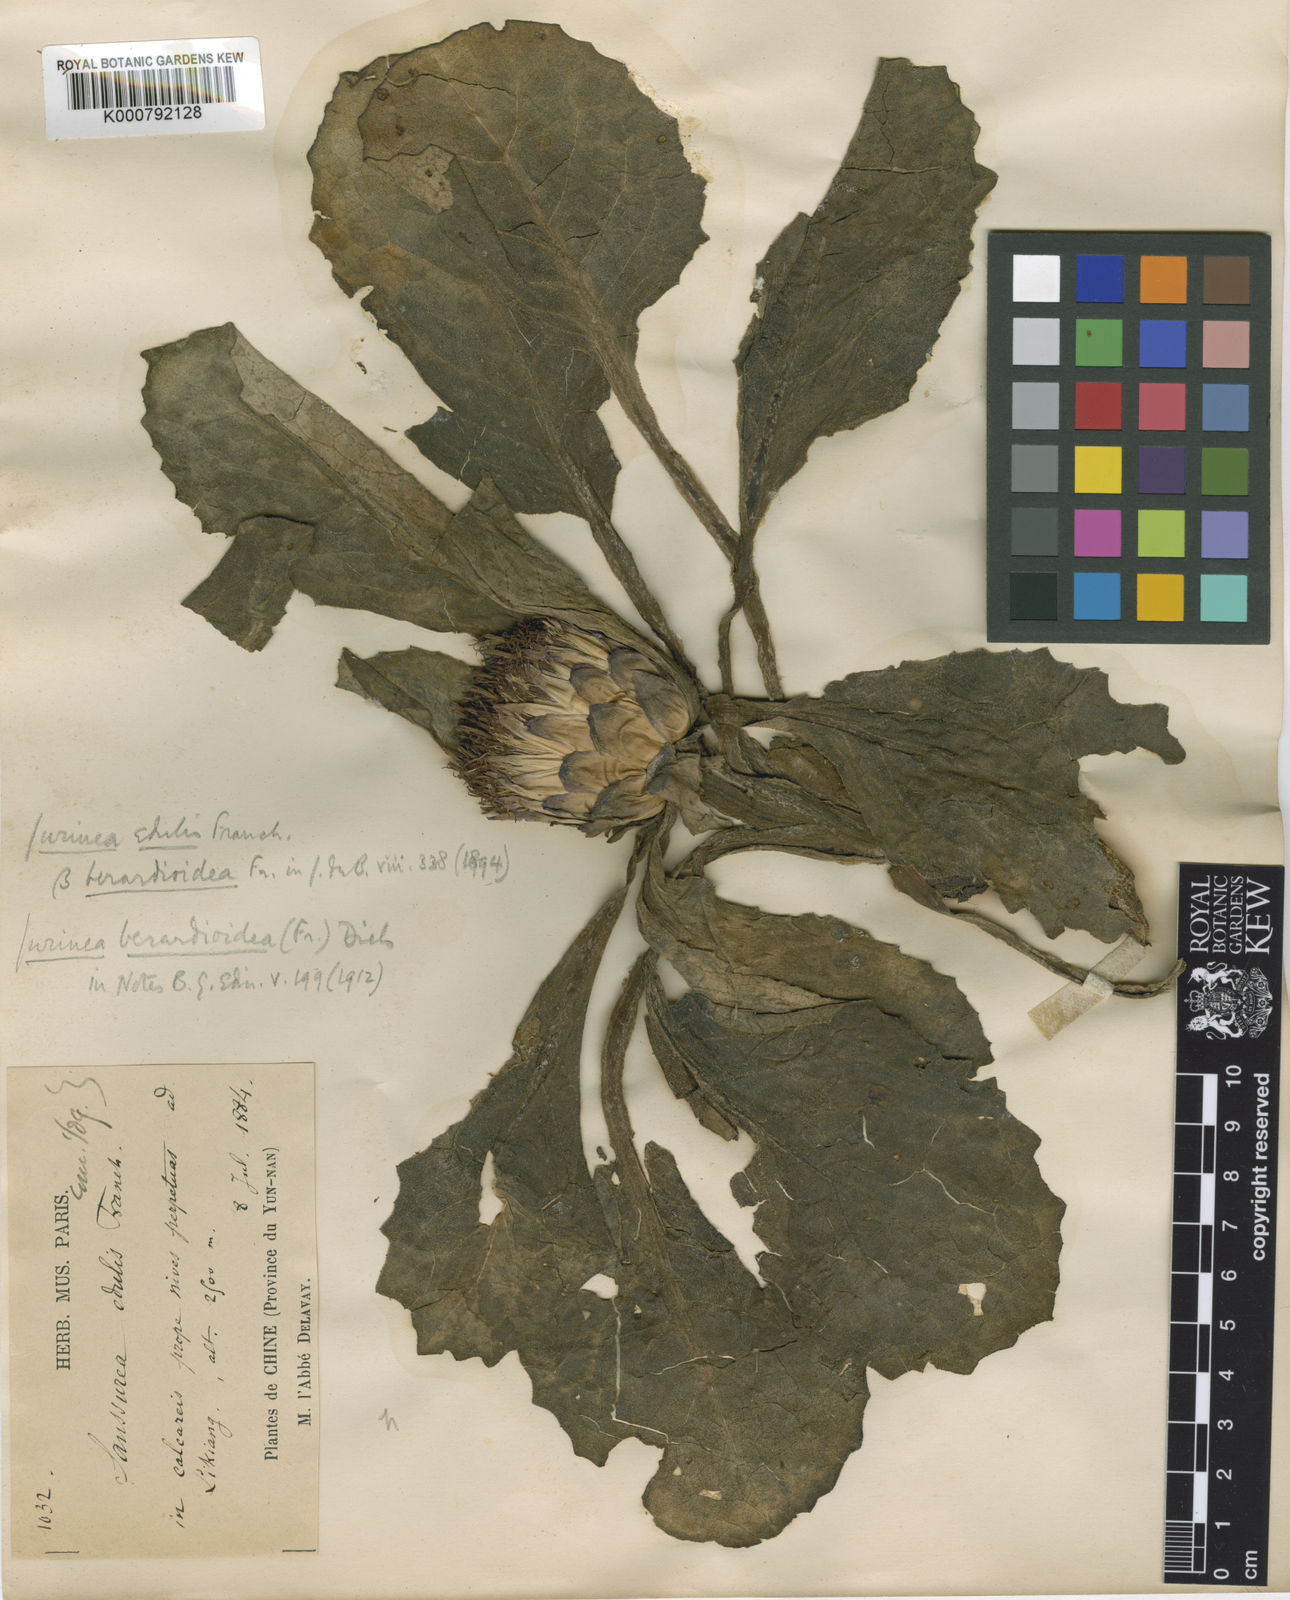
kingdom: Plantae
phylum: Tracheophyta
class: Magnoliopsida
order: Asterales
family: Asteraceae
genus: Jurinea
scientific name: Jurinea berardioides
